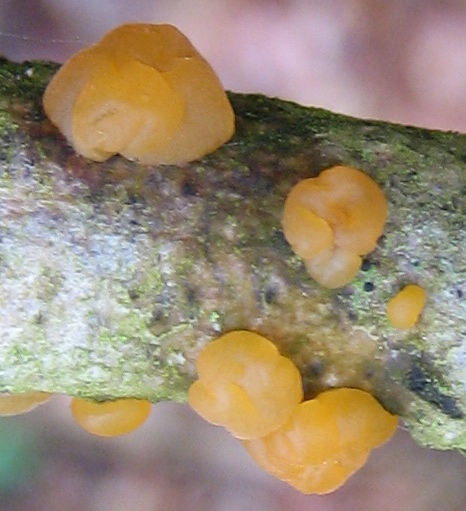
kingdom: Fungi
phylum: Basidiomycota
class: Dacrymycetes
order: Dacrymycetales
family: Dacrymycetaceae
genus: Dacrymyces
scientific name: Dacrymyces stillatus
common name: almindelig tåresvamp
